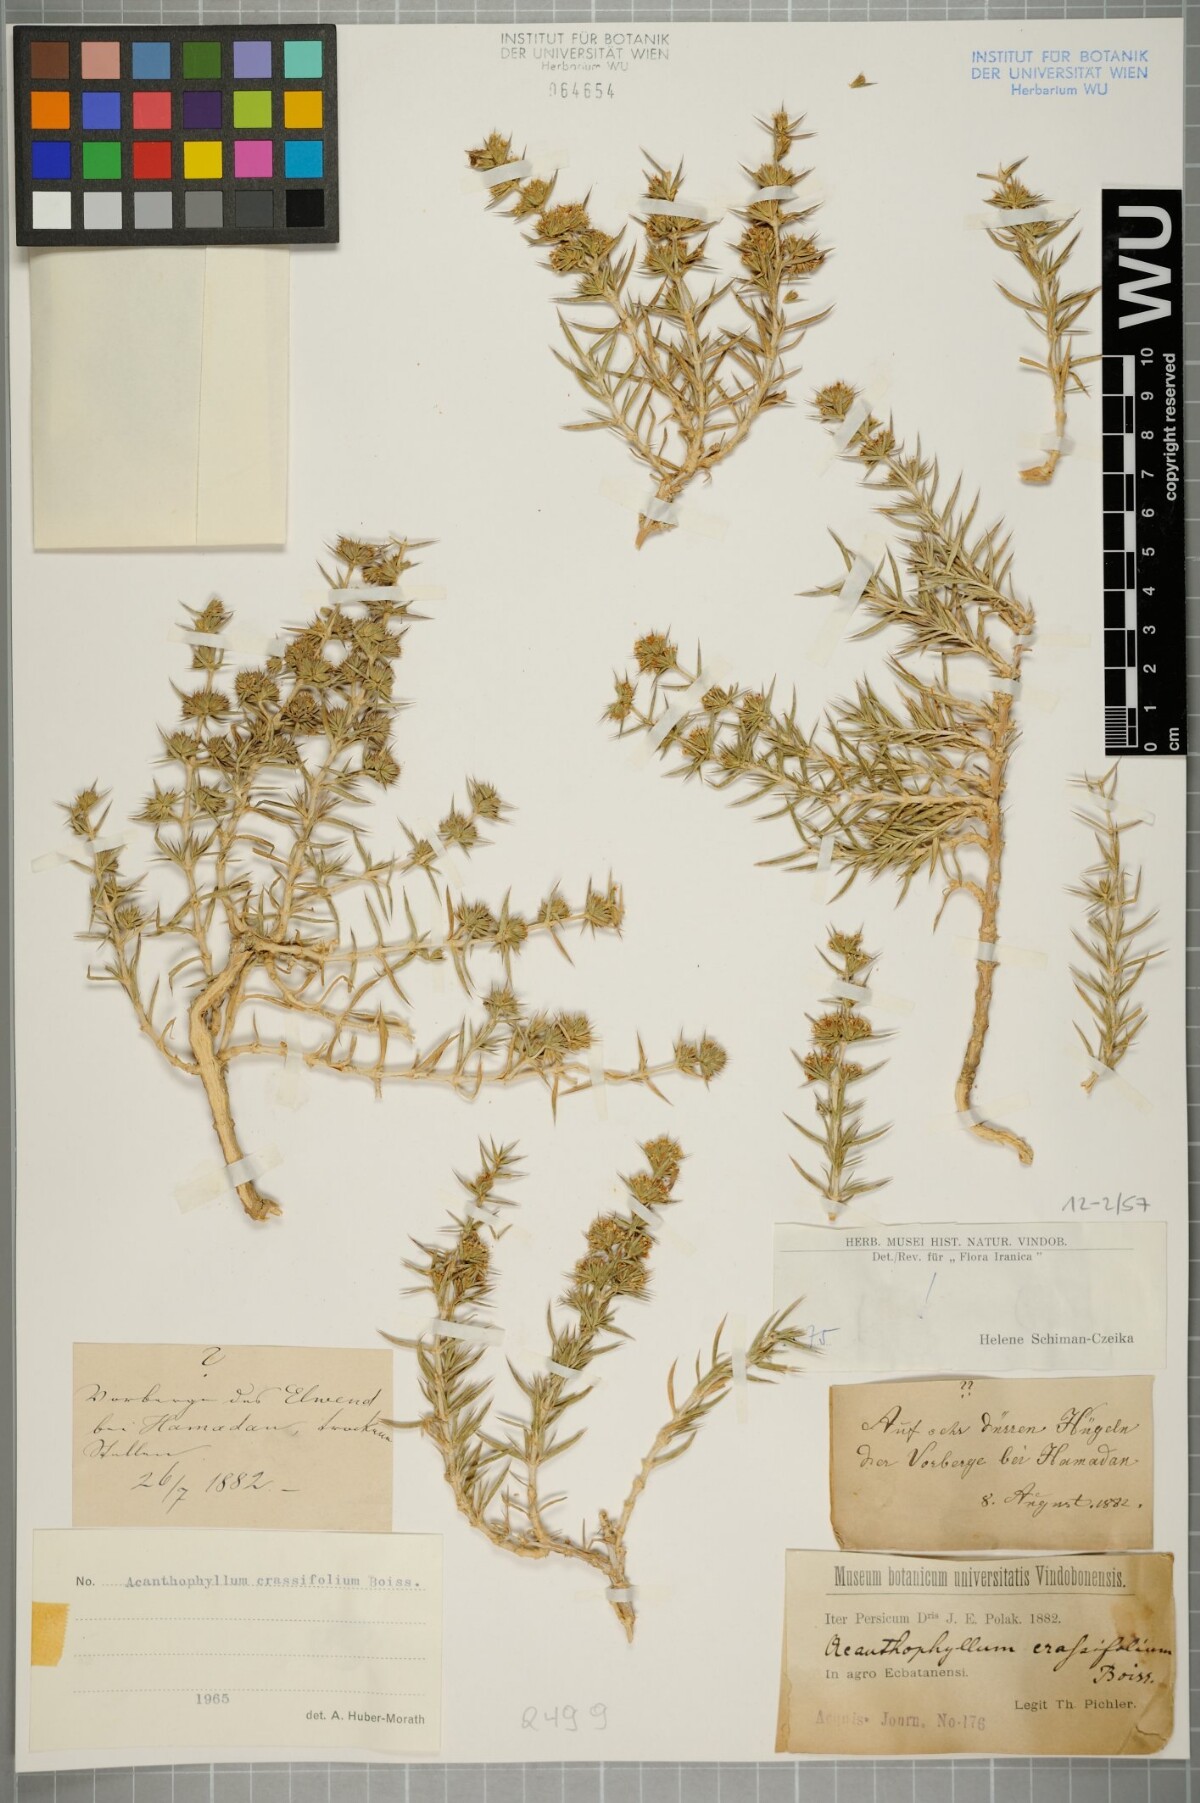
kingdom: Plantae
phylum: Tracheophyta
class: Magnoliopsida
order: Caryophyllales
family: Caryophyllaceae
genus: Acanthophyllum
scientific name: Acanthophyllum crassifolium
